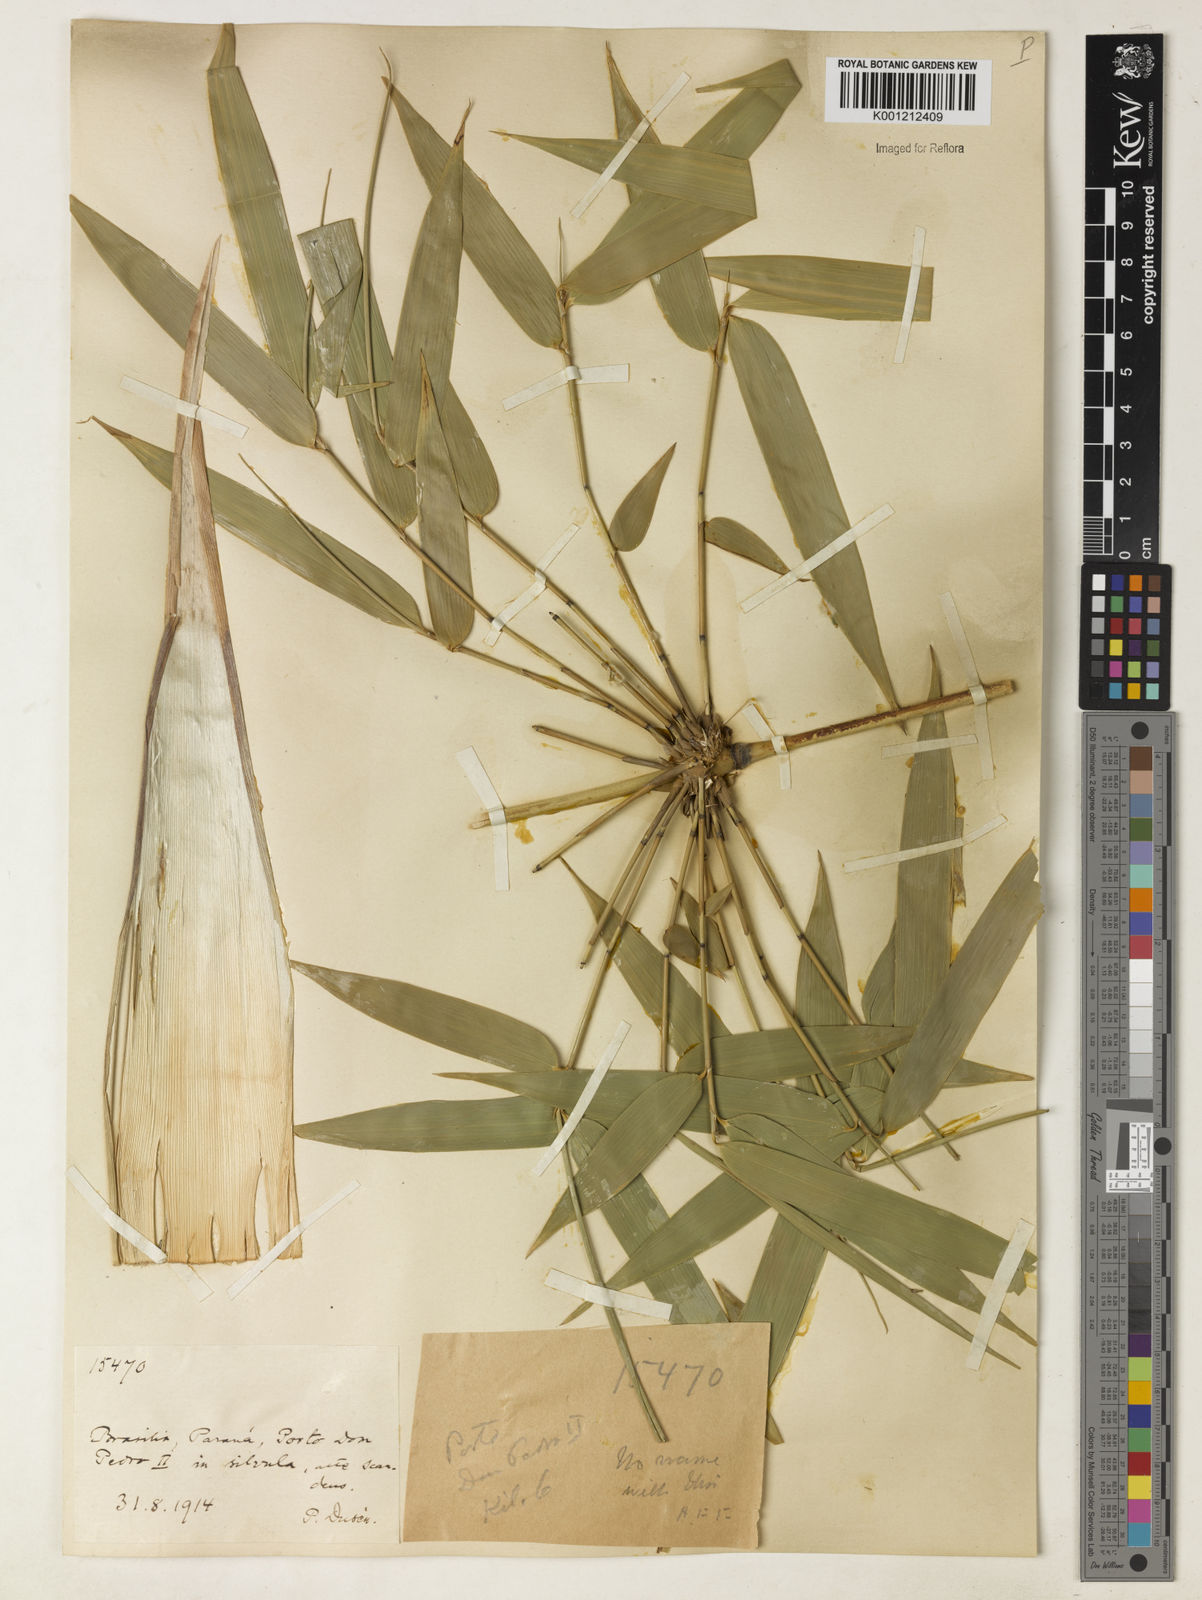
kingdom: Plantae
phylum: Tracheophyta
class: Liliopsida
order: Poales
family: Poaceae
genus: Merostachys
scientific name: Merostachys
